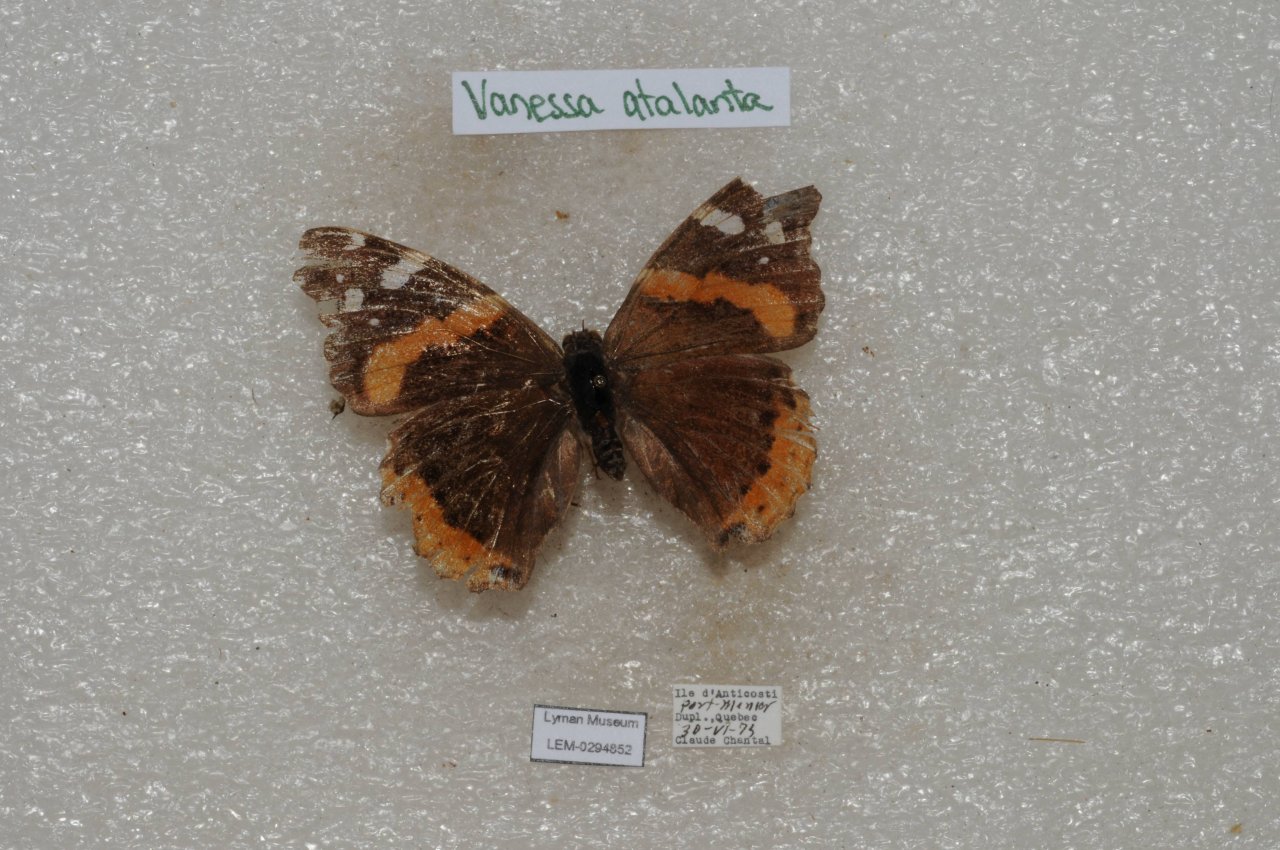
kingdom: Animalia
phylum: Arthropoda
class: Insecta
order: Lepidoptera
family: Nymphalidae
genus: Vanessa
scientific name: Vanessa atalanta
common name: Red Admiral
